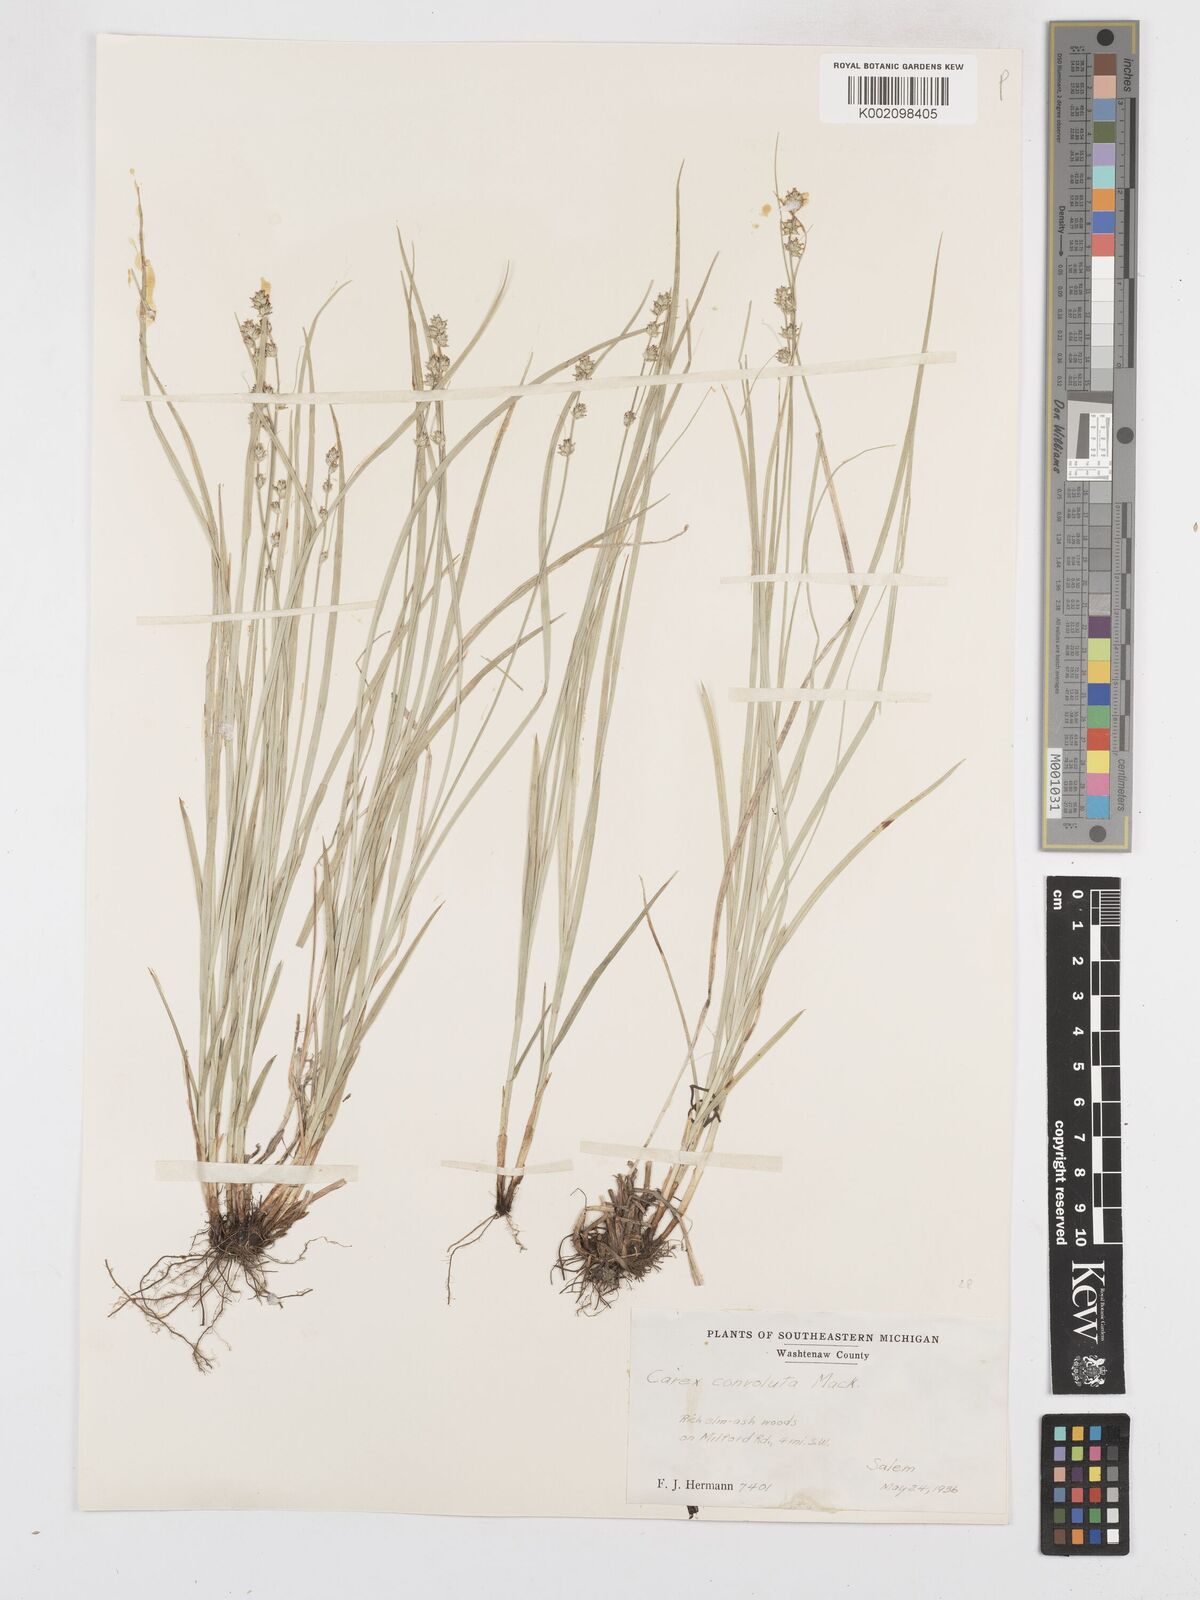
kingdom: Plantae
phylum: Tracheophyta
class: Liliopsida
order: Poales
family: Cyperaceae
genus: Carex
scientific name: Carex rosea
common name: Curly-styled wood sedge
